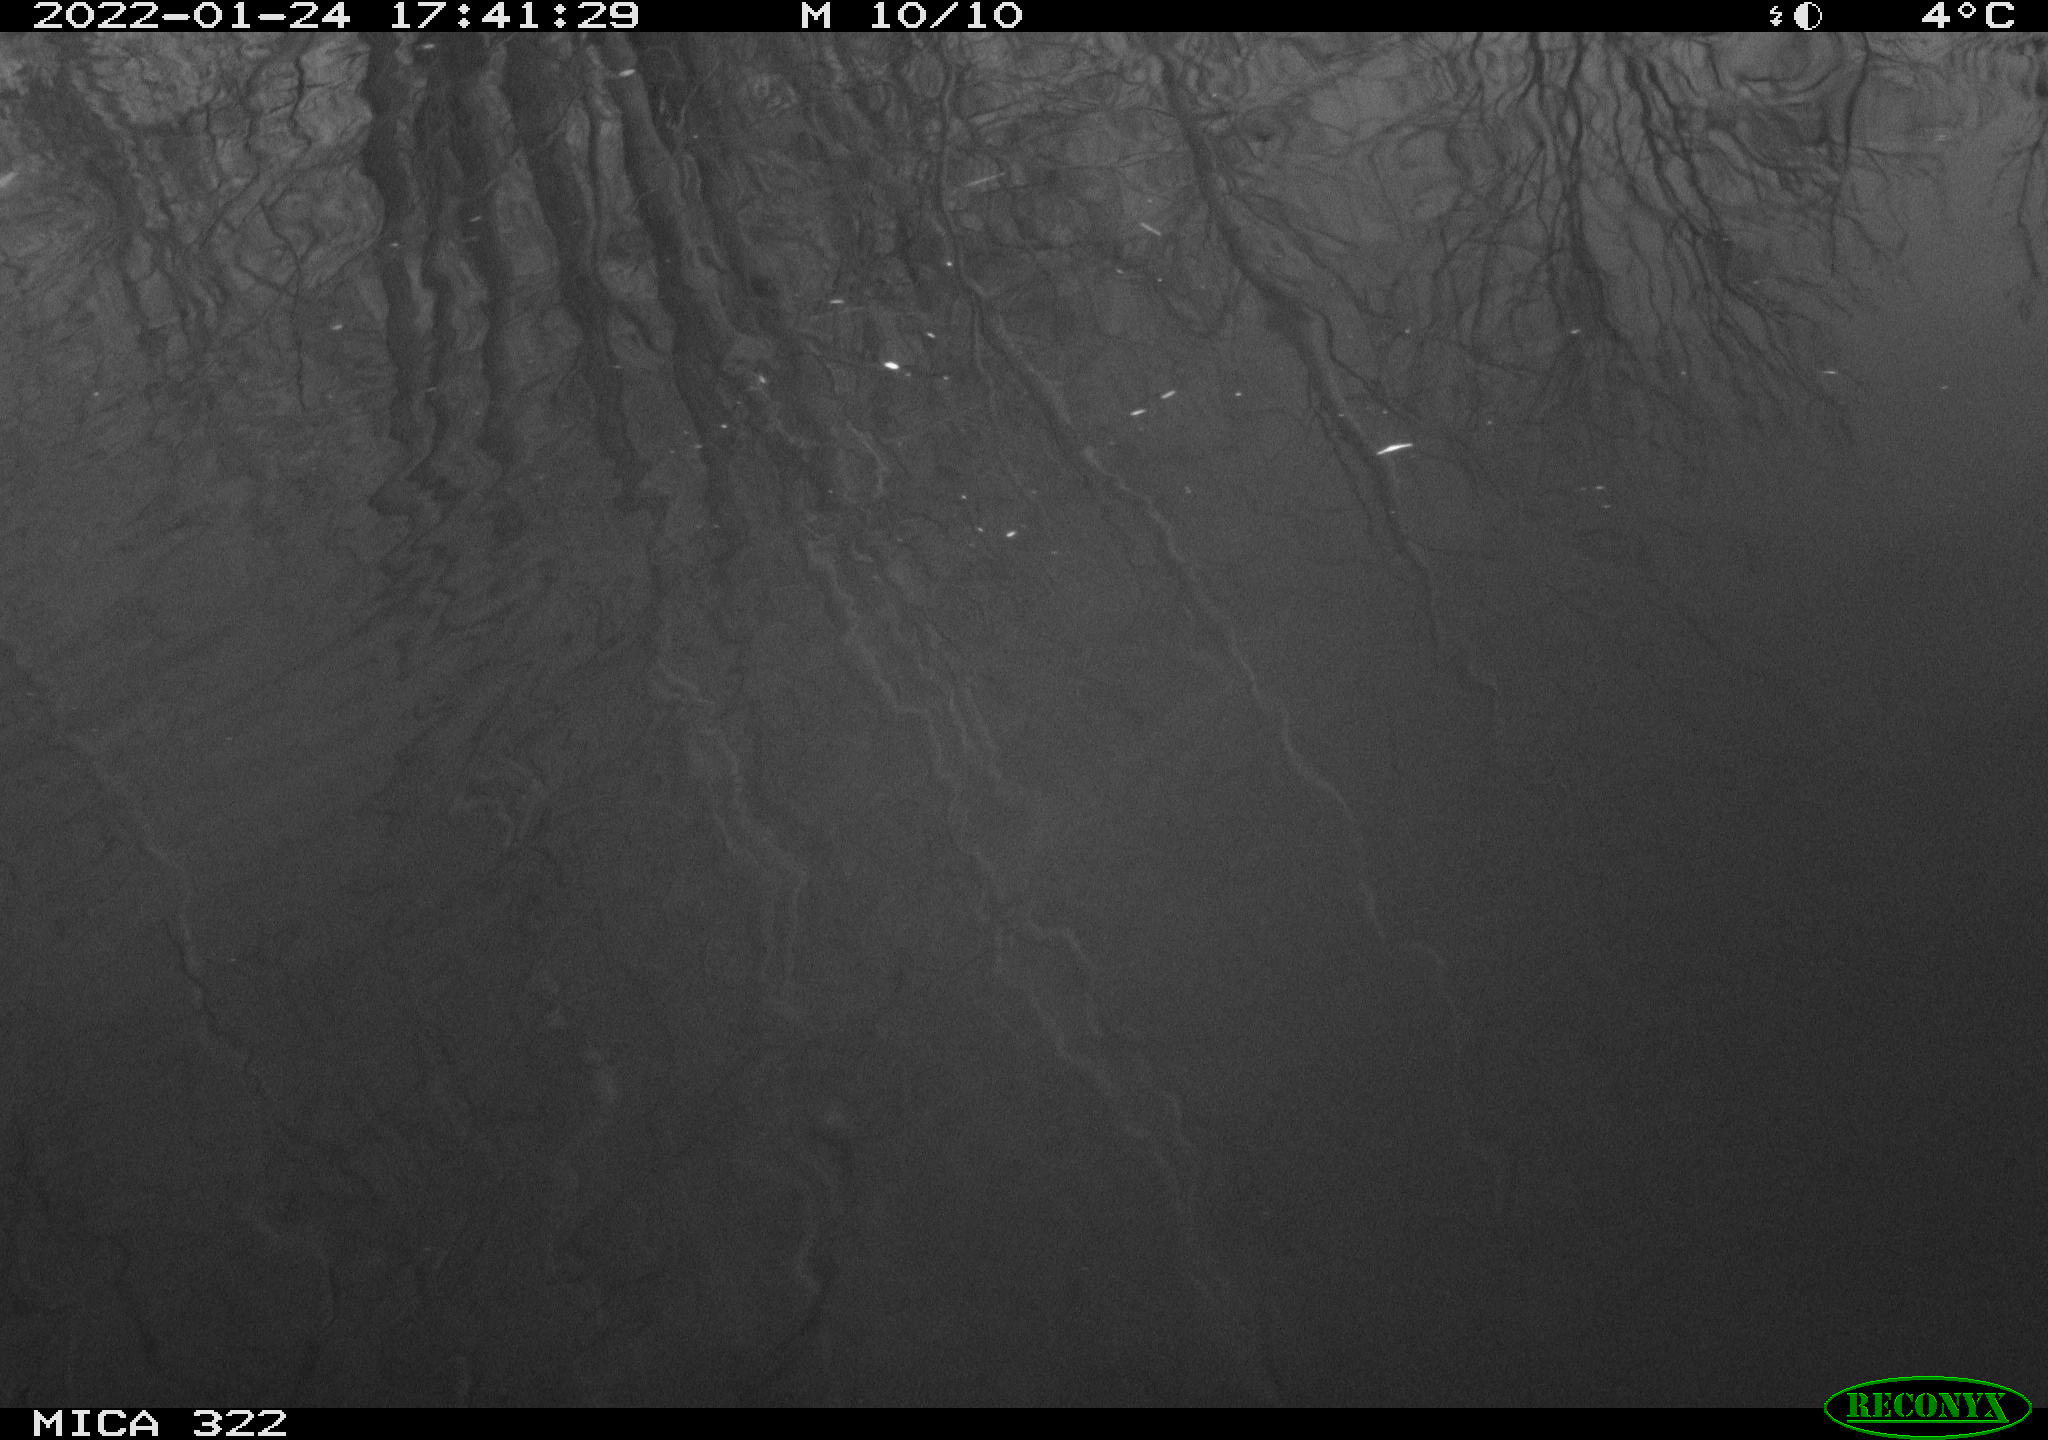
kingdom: Animalia
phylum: Chordata
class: Aves
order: Anseriformes
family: Anatidae
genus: Anas
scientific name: Anas
